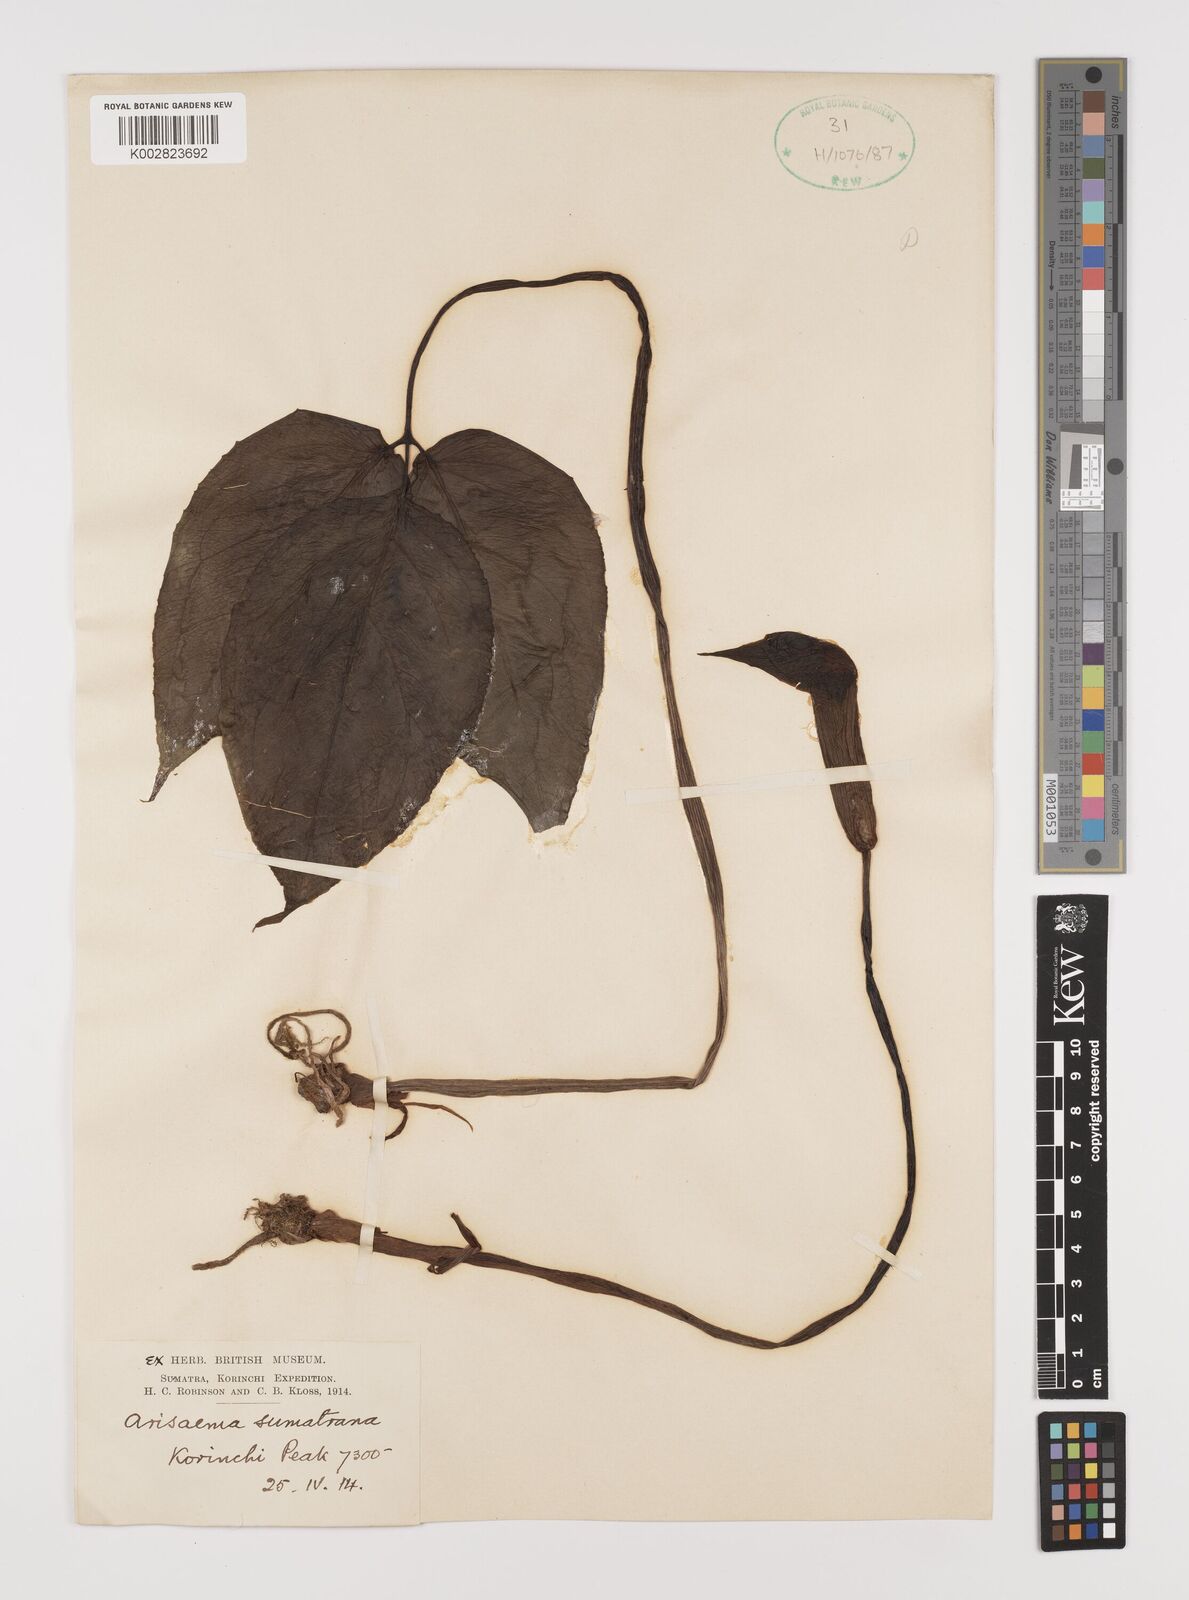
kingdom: Plantae
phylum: Tracheophyta
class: Liliopsida
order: Alismatales
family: Araceae
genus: Arisaema
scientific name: Arisaema filiforme
